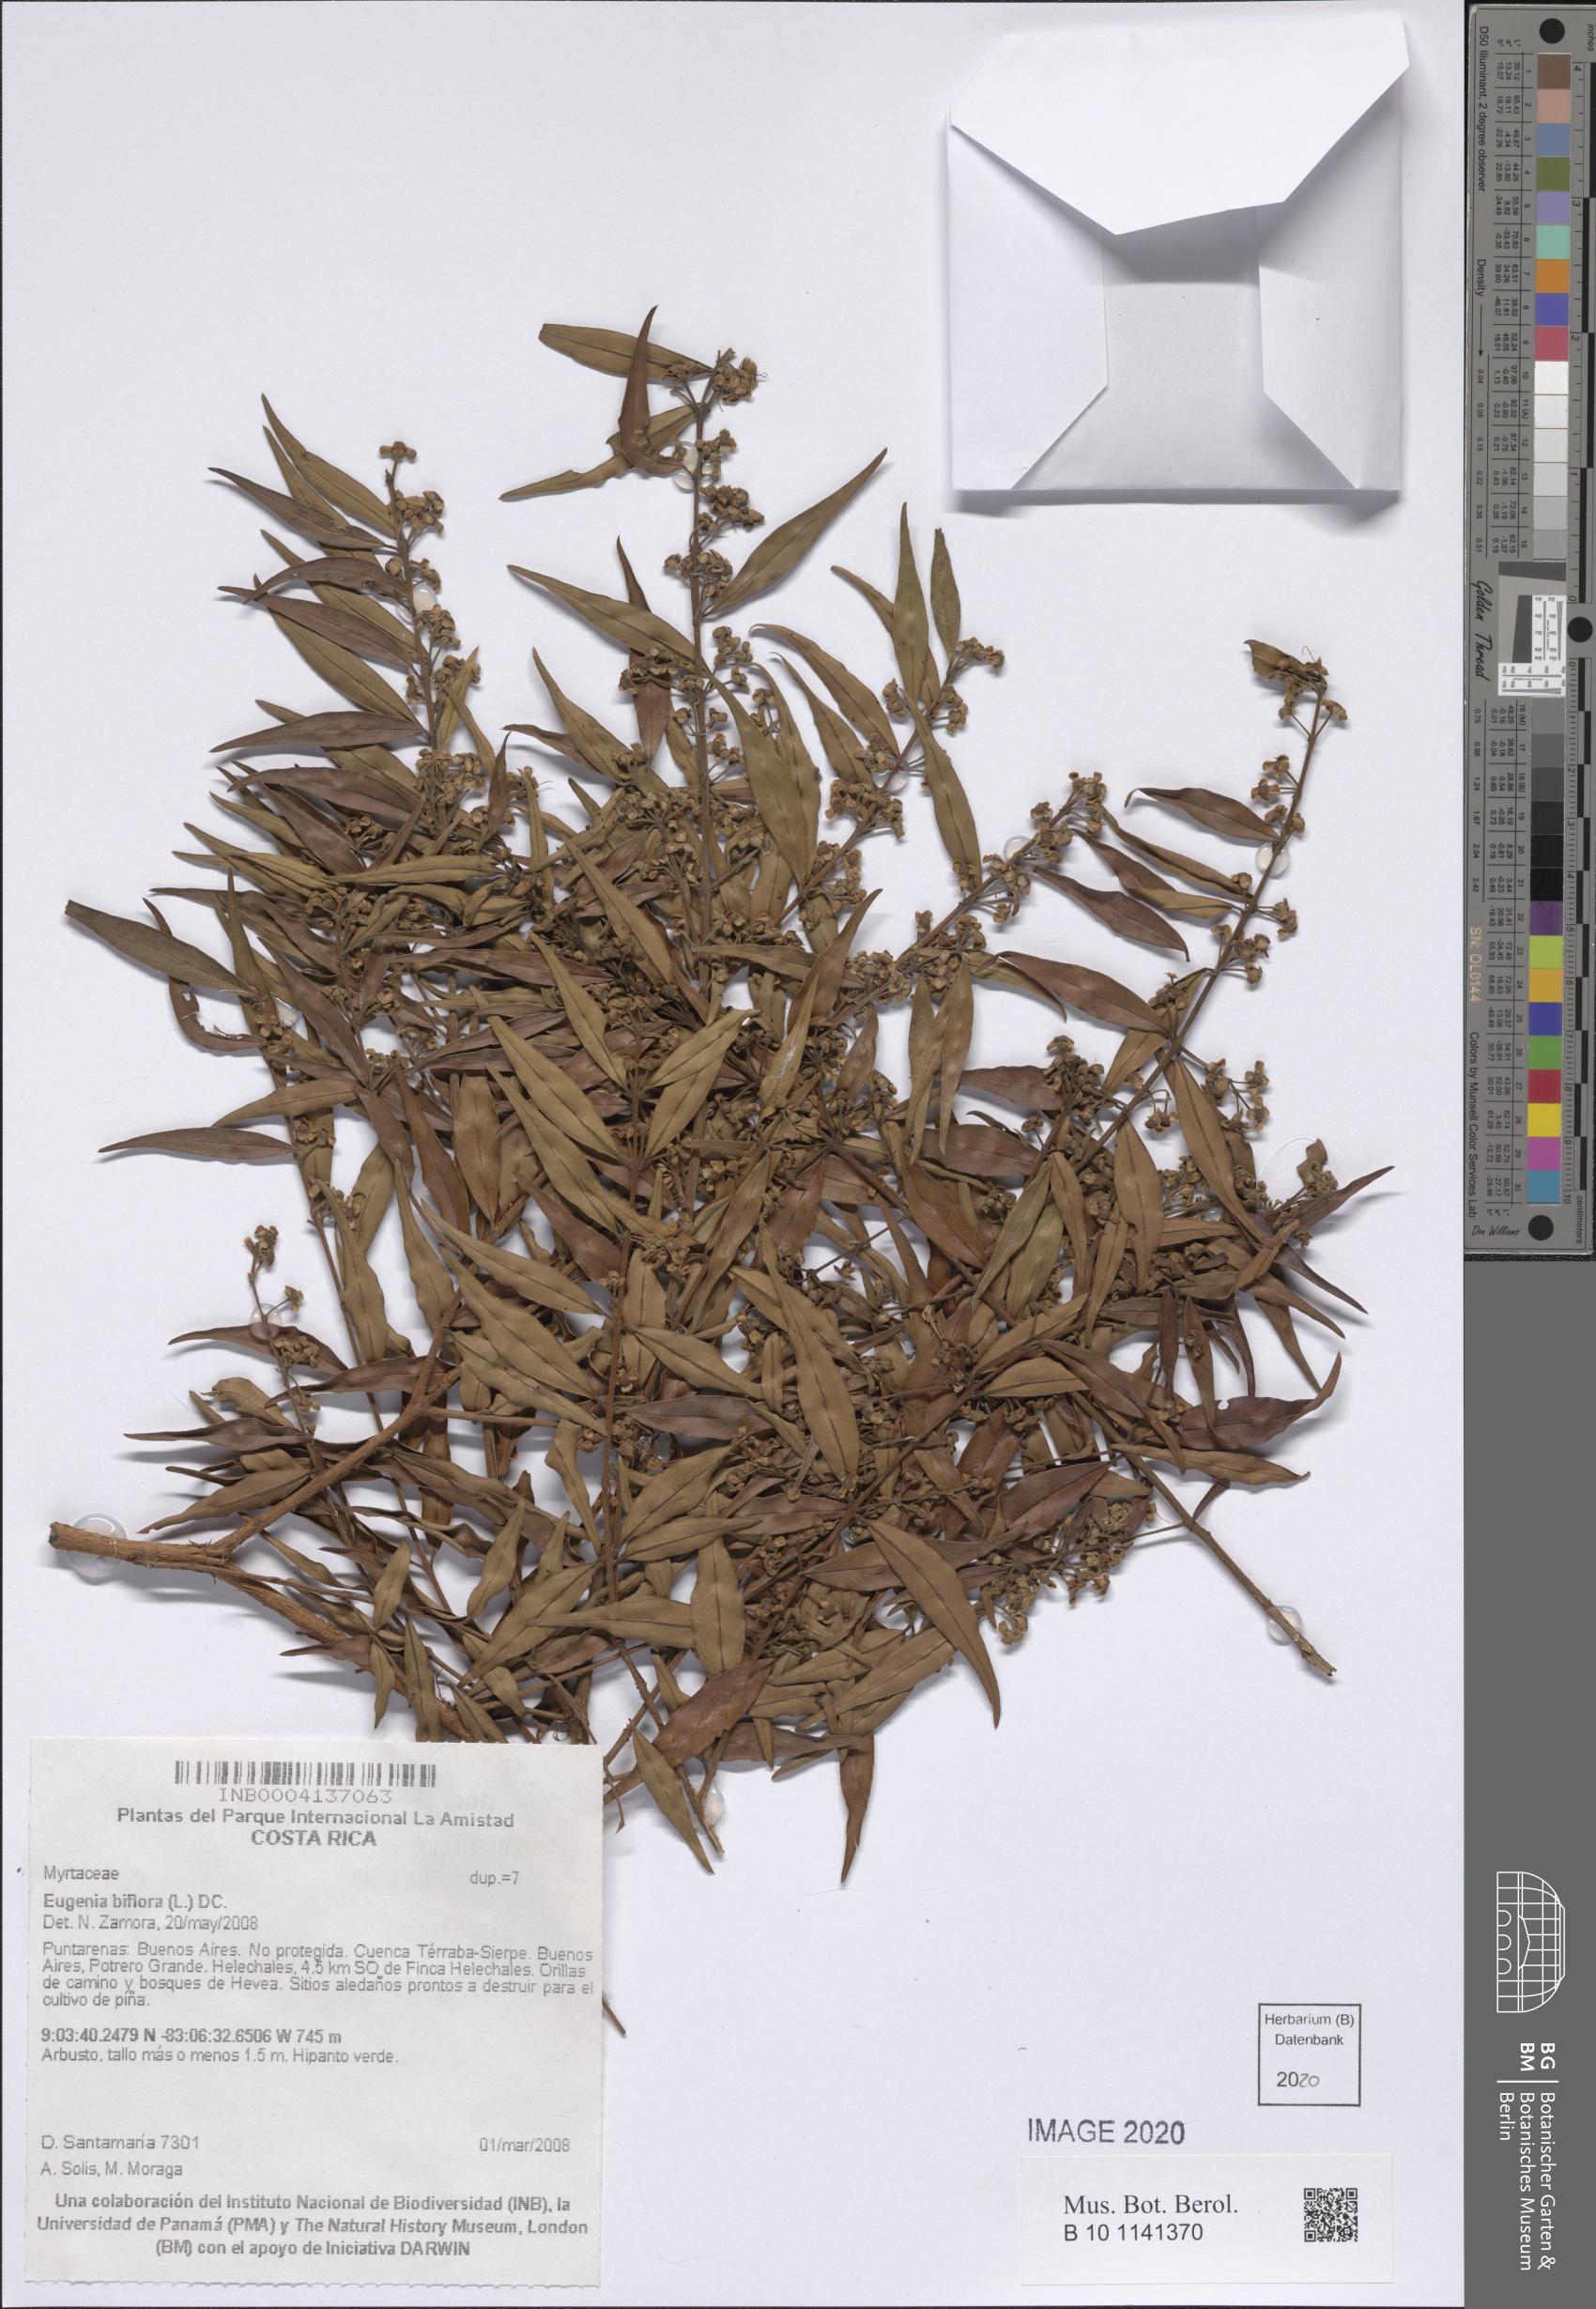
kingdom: Plantae
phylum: Tracheophyta
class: Magnoliopsida
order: Myrtales
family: Myrtaceae
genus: Eugenia
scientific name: Eugenia biflora
